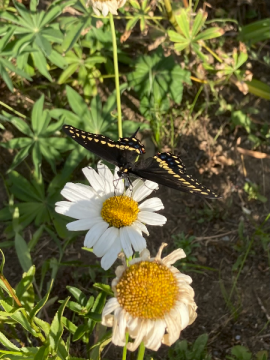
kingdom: Animalia
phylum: Arthropoda
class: Insecta
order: Lepidoptera
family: Papilionidae
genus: Papilio
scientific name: Papilio polyxenes
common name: Black Swallowtail
